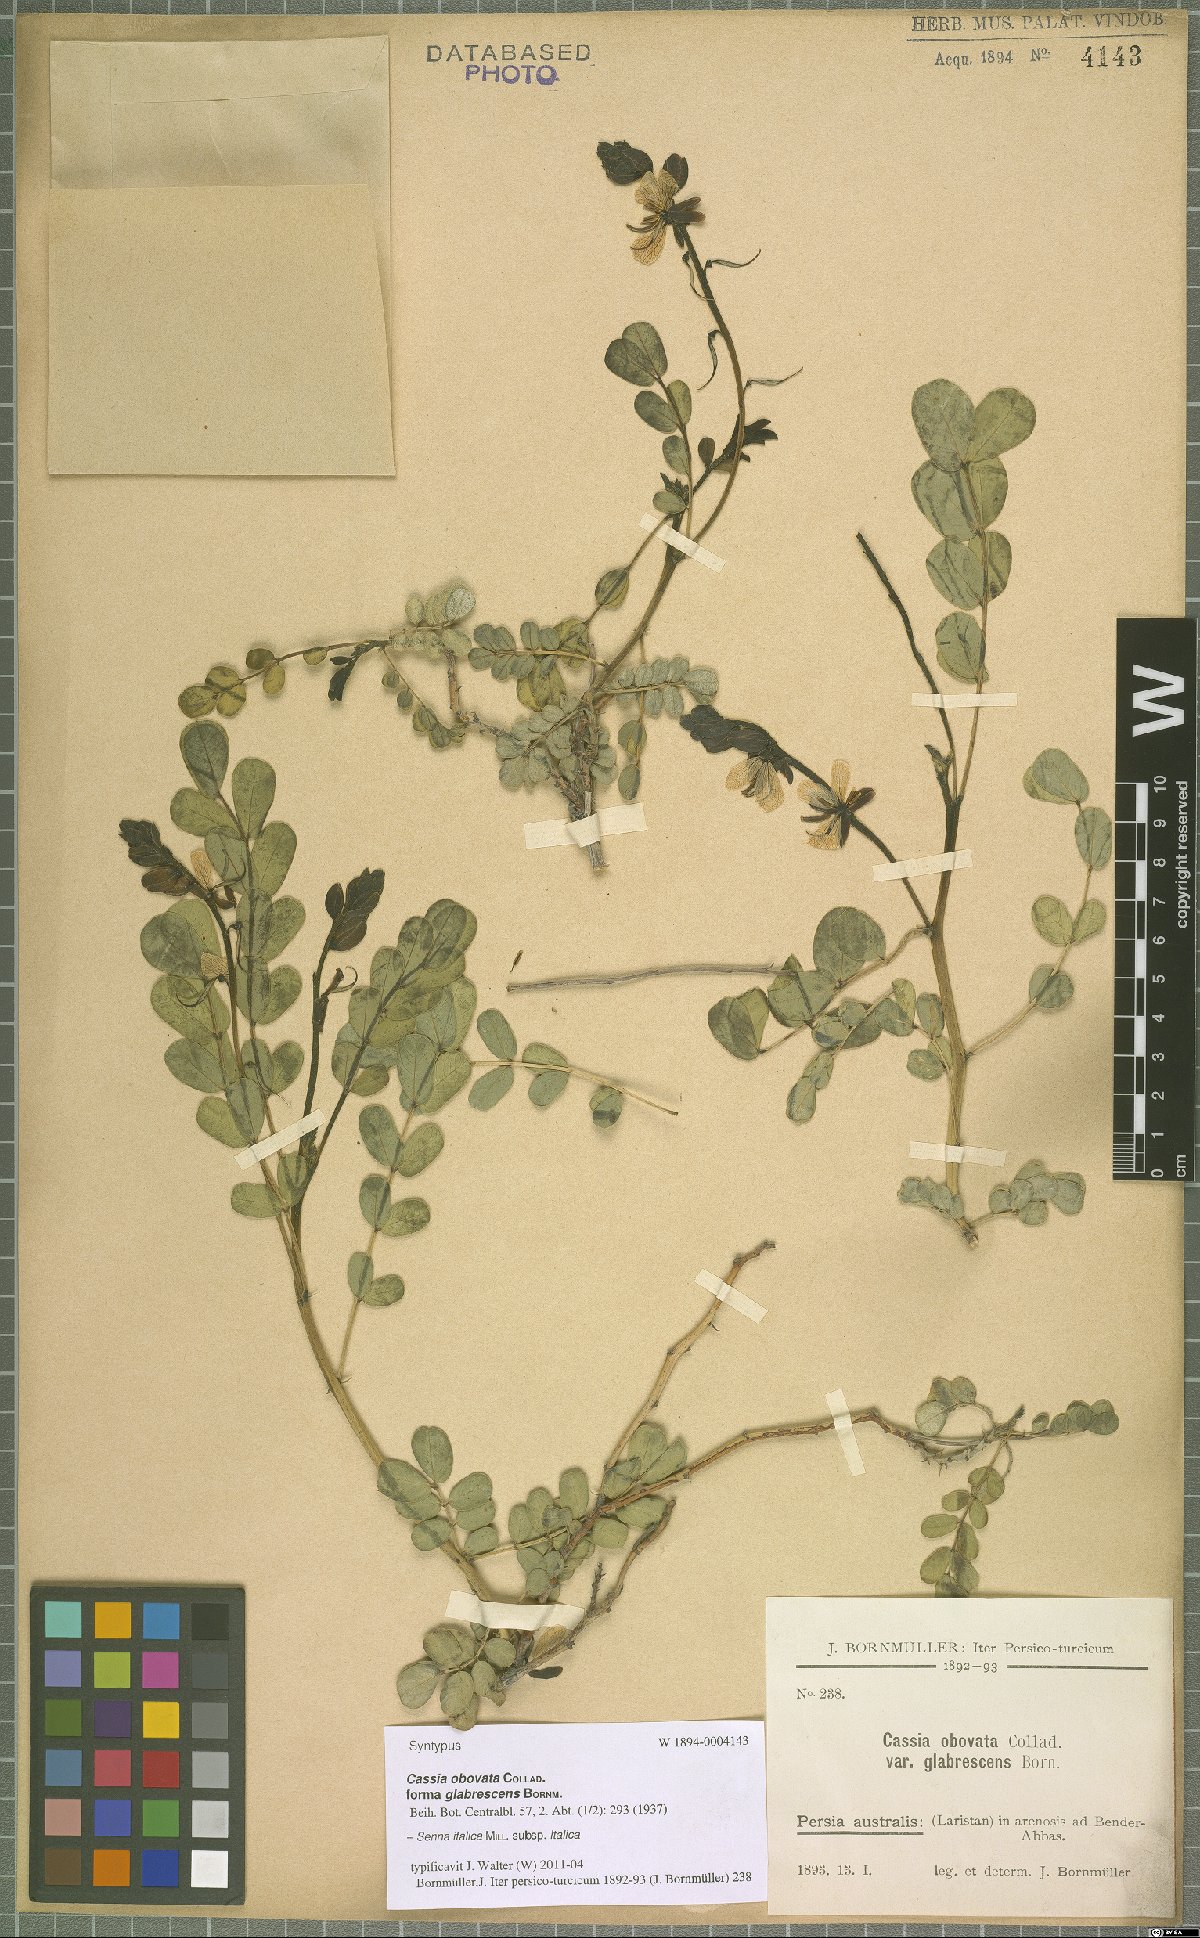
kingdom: Plantae
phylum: Tracheophyta
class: Magnoliopsida
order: Fabales
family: Fabaceae
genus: Senna
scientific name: Senna italica
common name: Port royal senna
